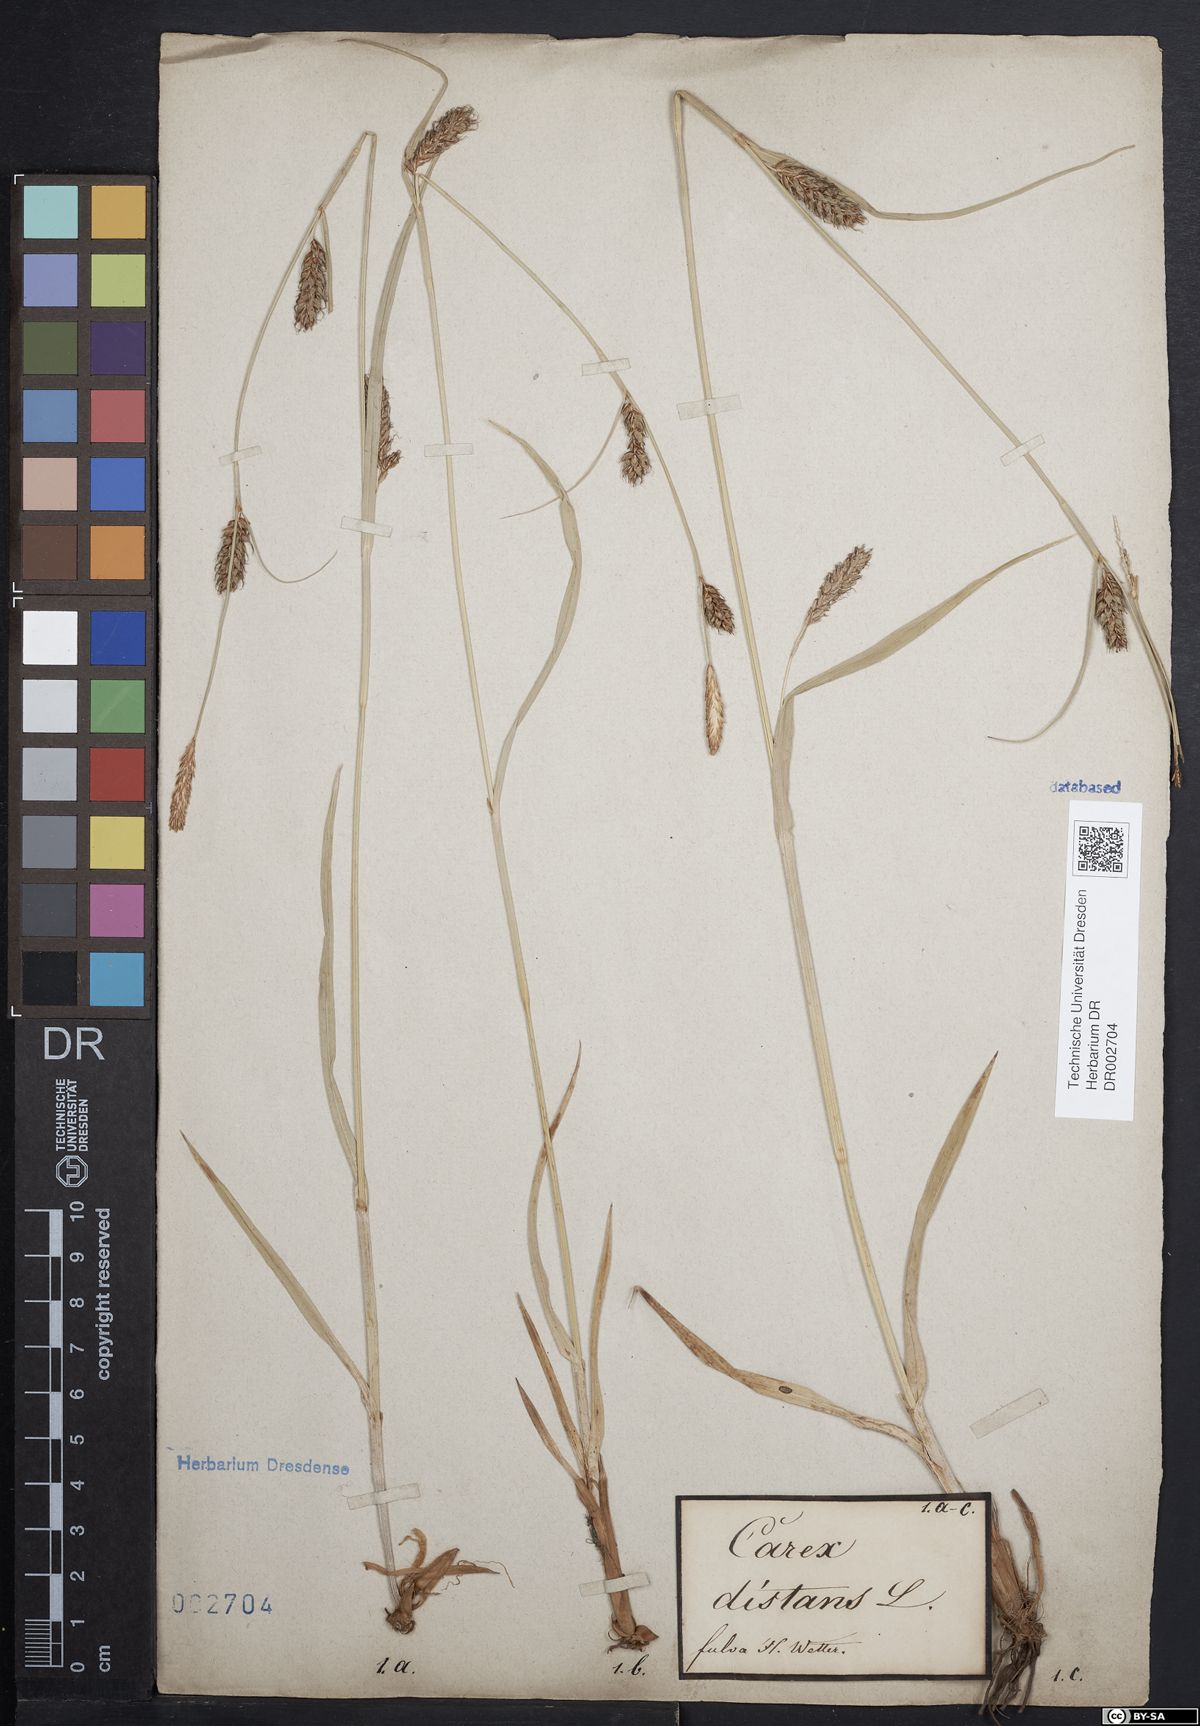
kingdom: Plantae
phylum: Tracheophyta
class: Liliopsida
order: Poales
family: Cyperaceae
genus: Carex
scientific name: Carex distans
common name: Distant sedge
